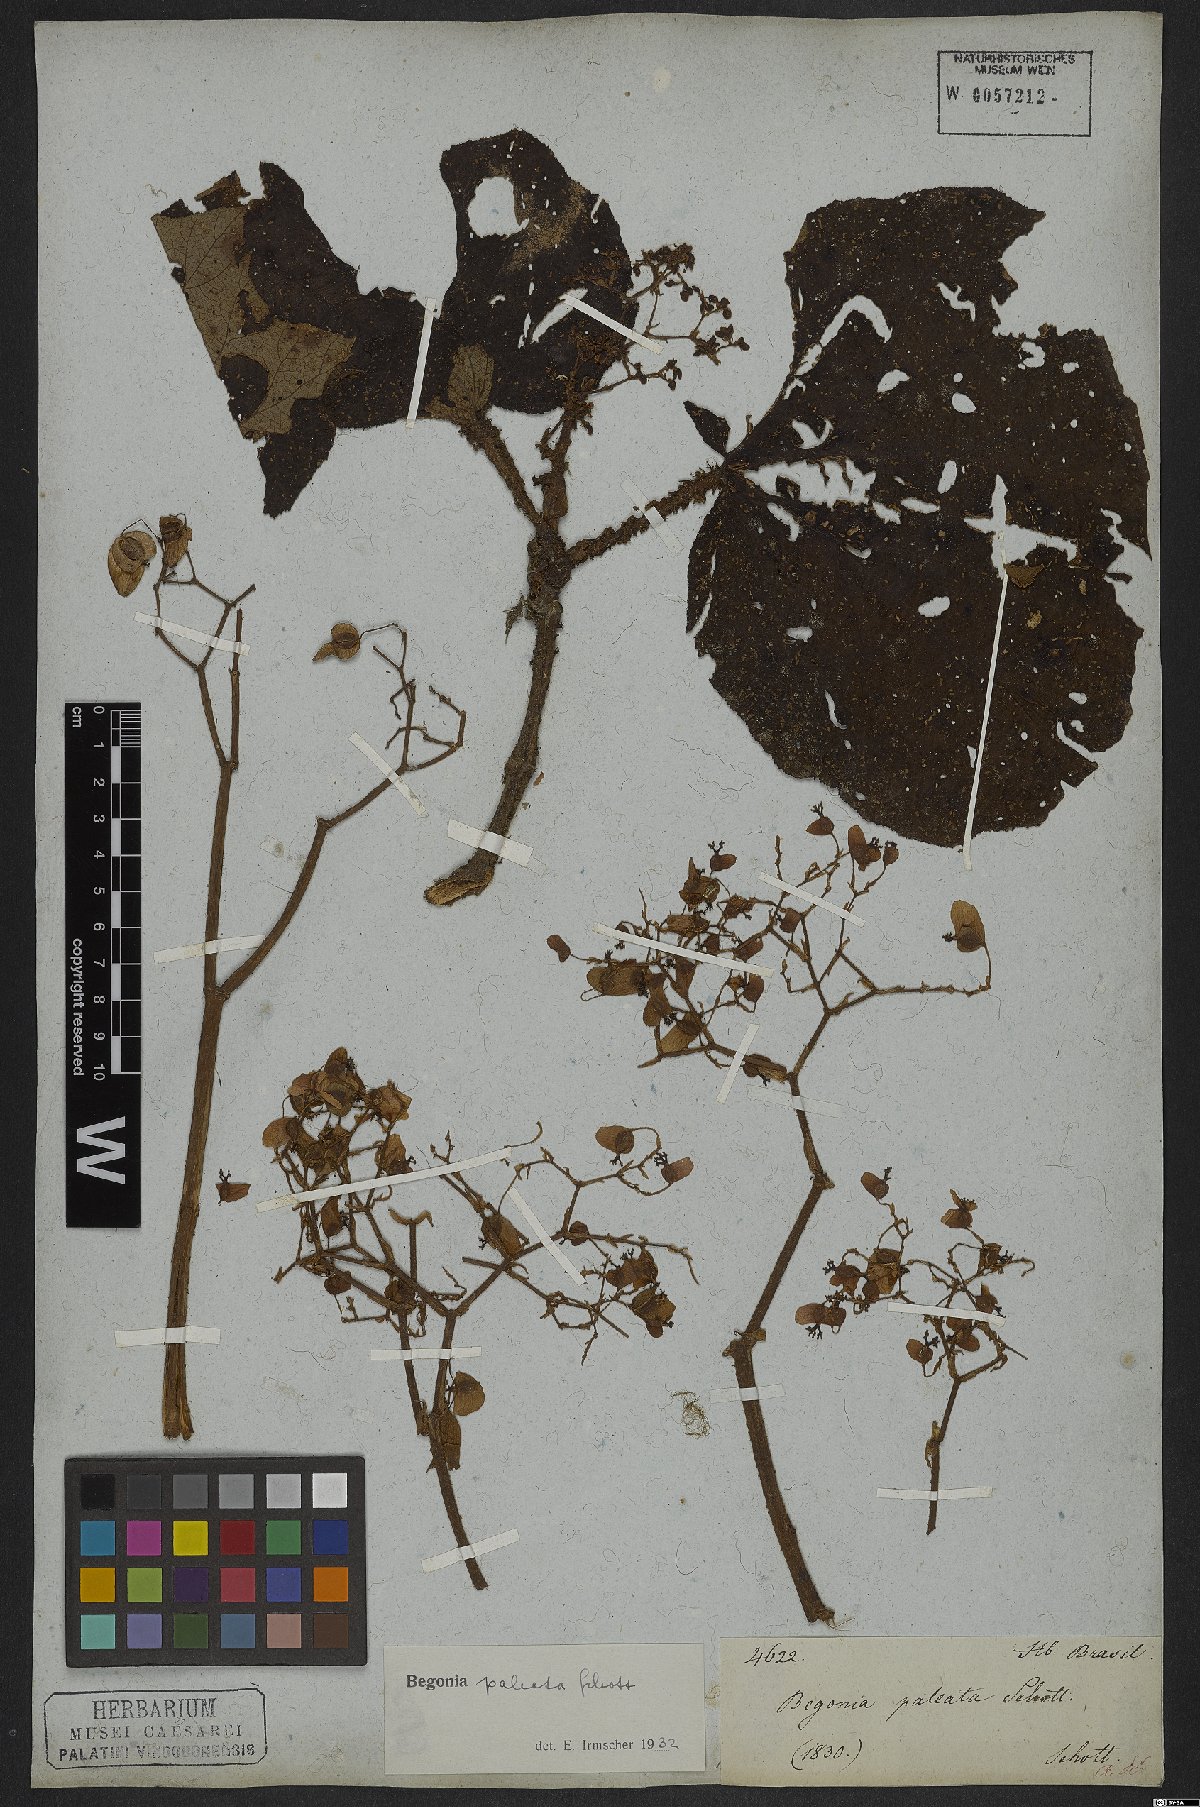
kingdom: Plantae
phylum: Tracheophyta
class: Magnoliopsida
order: Cucurbitales
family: Begoniaceae
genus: Begonia
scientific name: Begonia paleata
